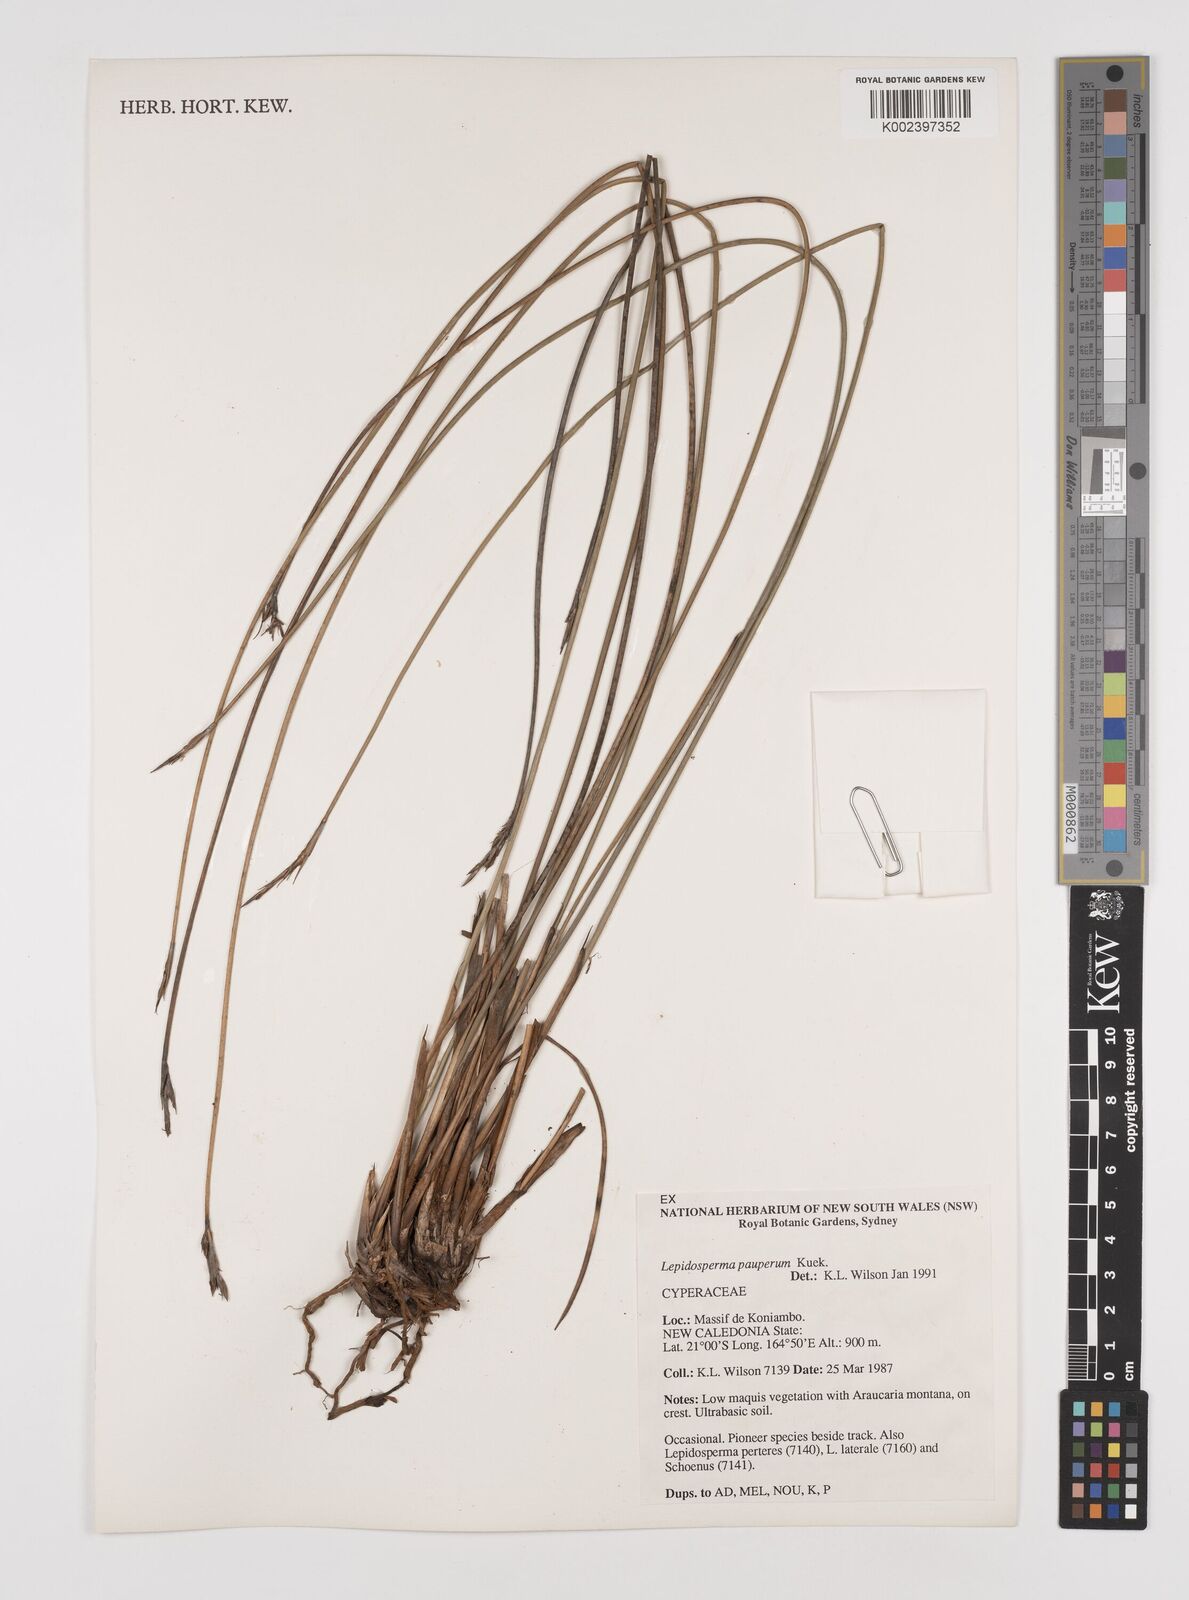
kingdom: Plantae
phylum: Tracheophyta
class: Liliopsida
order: Poales
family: Cyperaceae
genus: Lepidosperma
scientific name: Lepidosperma pauperum
